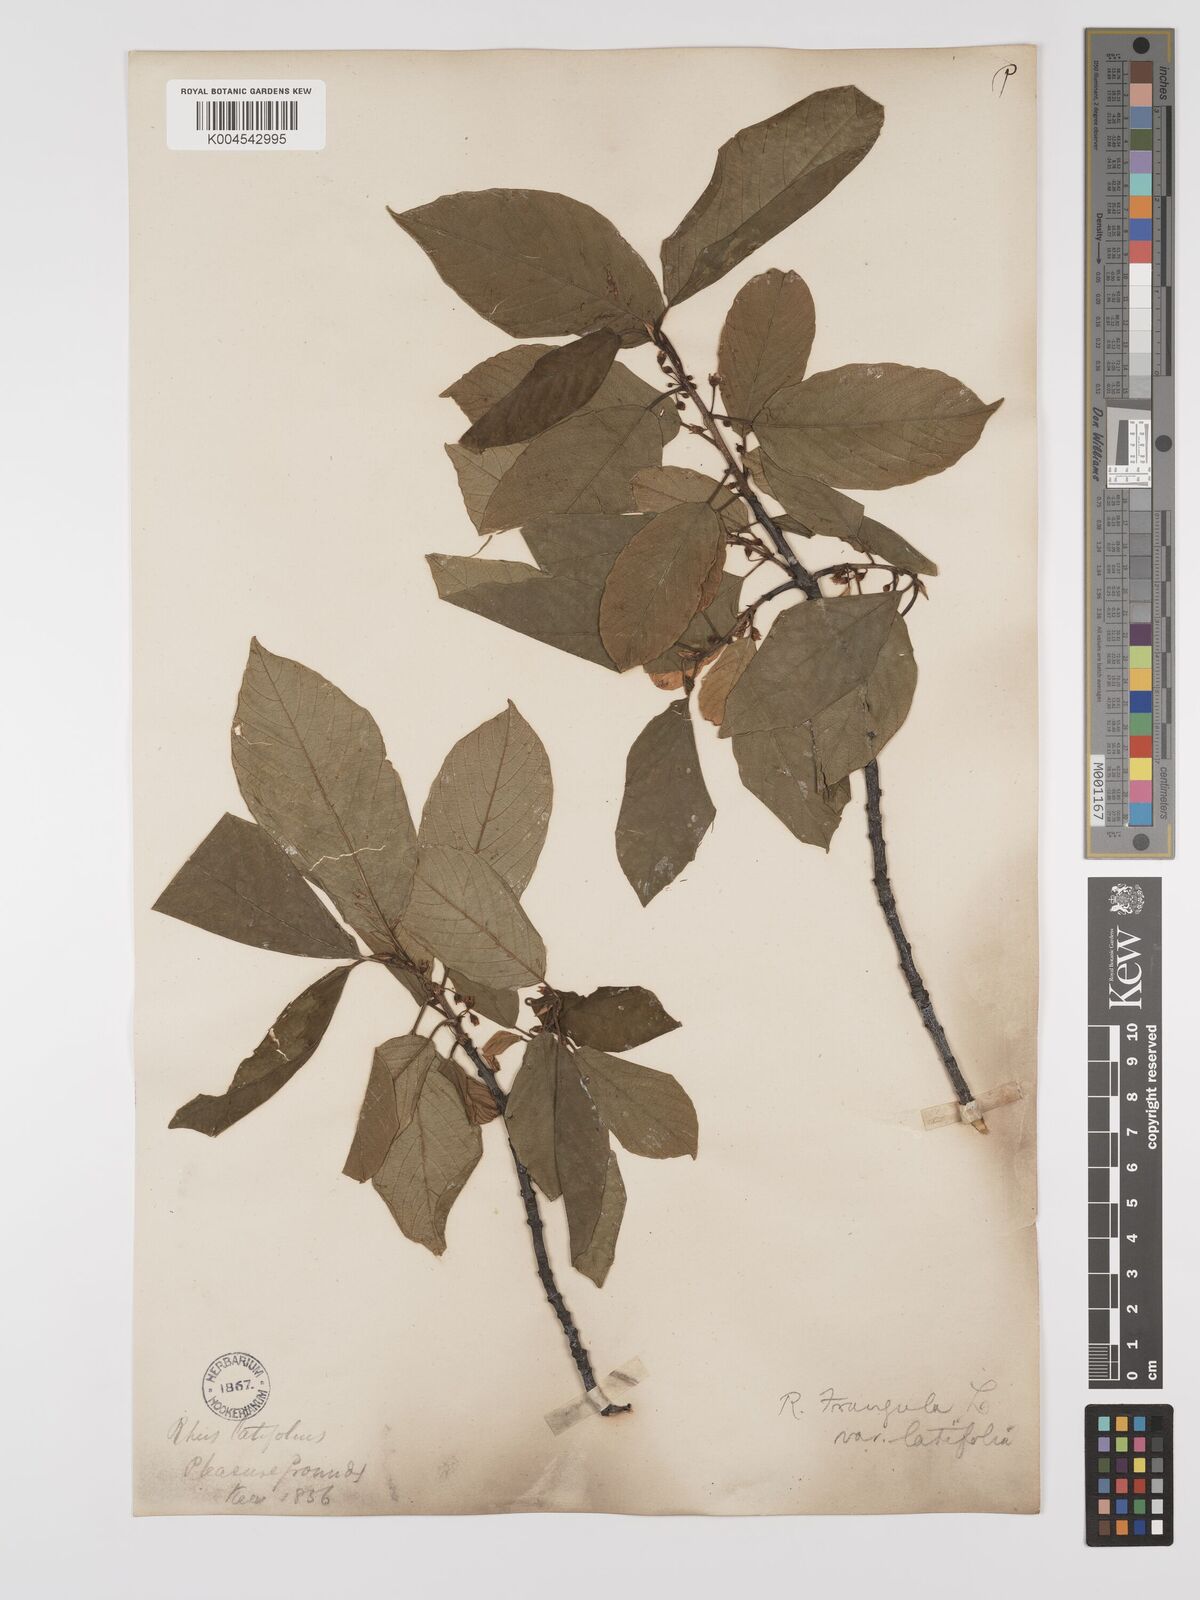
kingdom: Plantae
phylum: Tracheophyta
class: Magnoliopsida
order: Rosales
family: Rhamnaceae
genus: Frangula
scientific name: Frangula alnus
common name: Alder buckthorn
